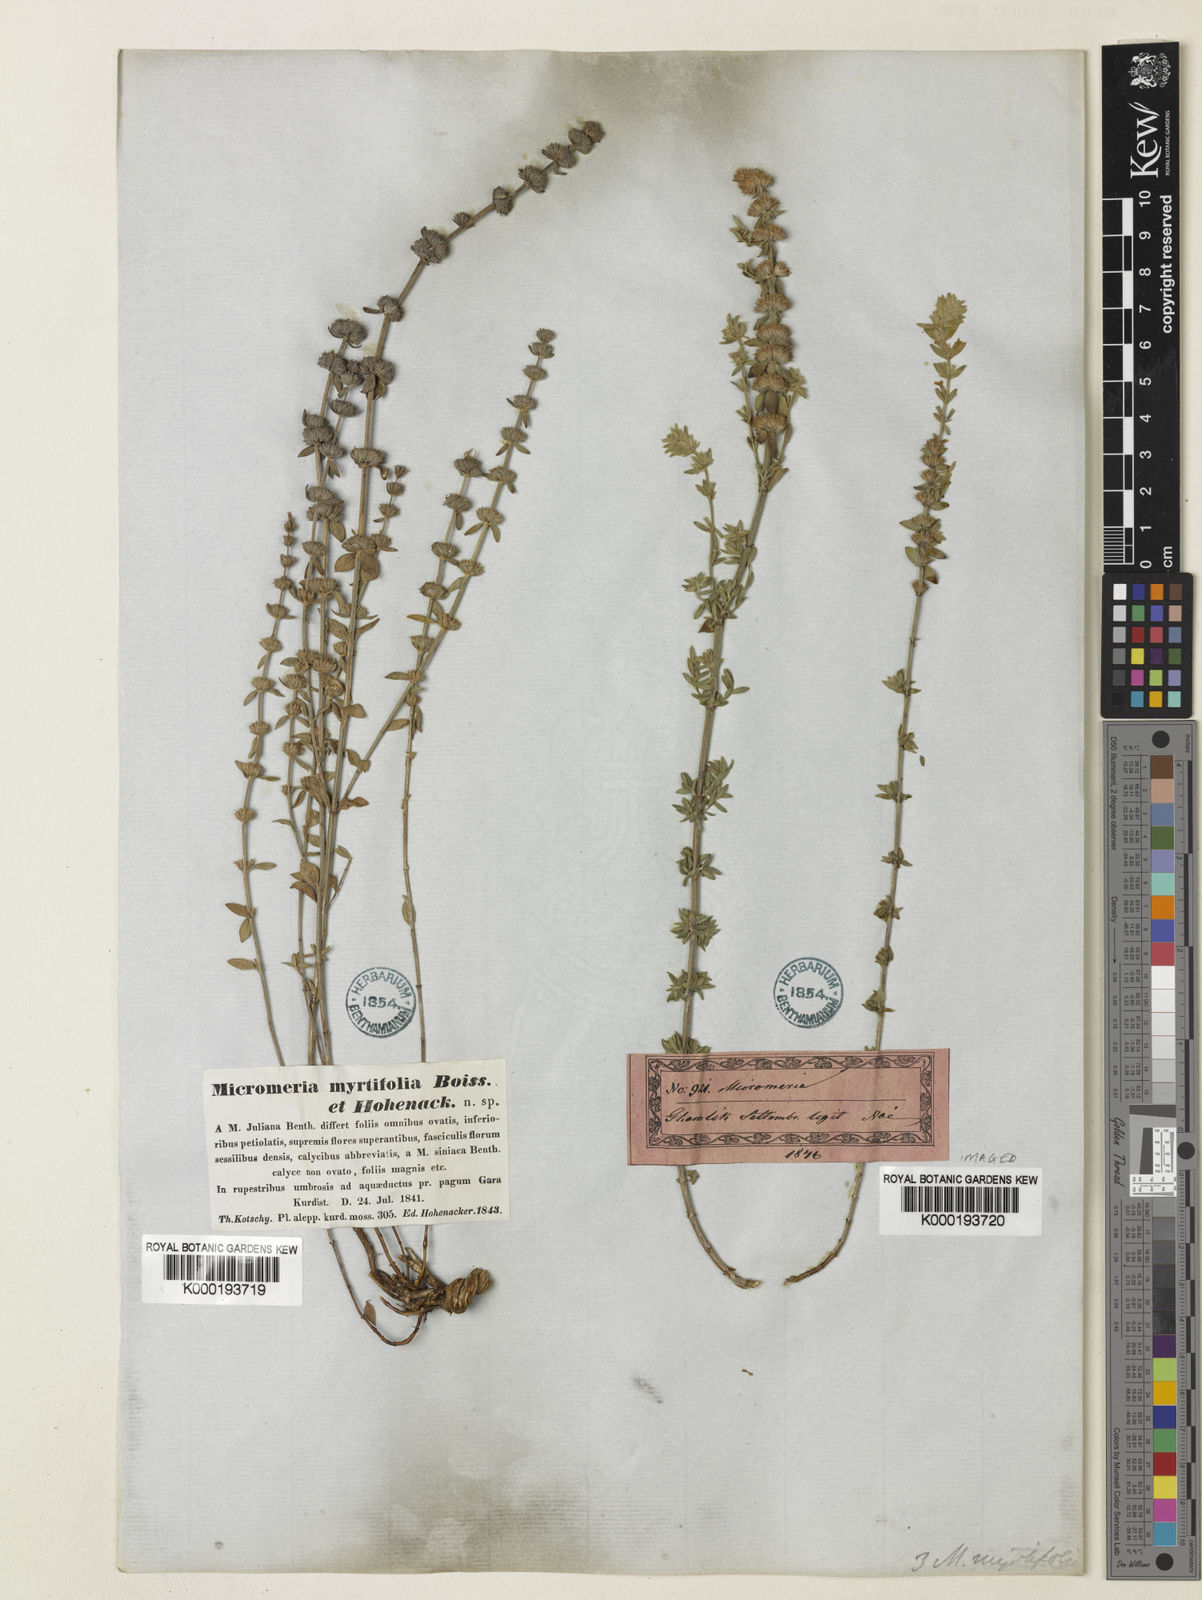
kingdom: Plantae
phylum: Tracheophyta
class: Magnoliopsida
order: Lamiales
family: Lamiaceae
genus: Micromeria
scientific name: Micromeria myrtifolia
